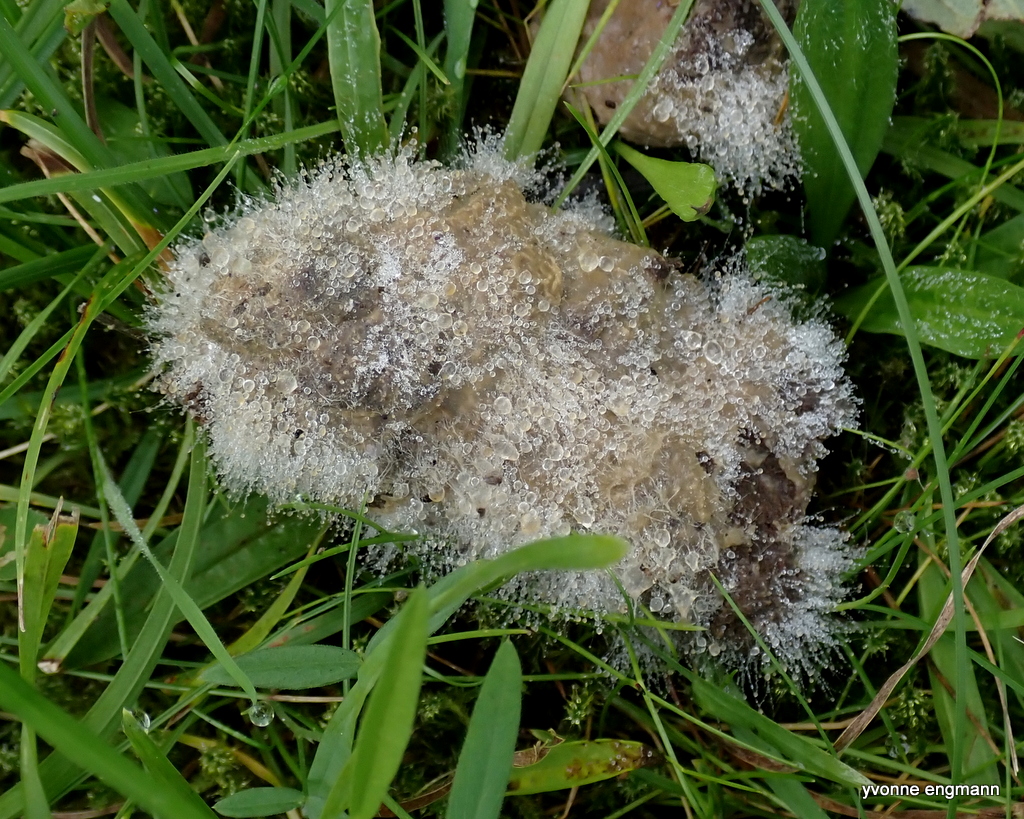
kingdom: Fungi
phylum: Mucoromycota
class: Mucoromycetes
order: Mucorales
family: Mucoraceae
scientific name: Mucoraceae
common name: mugfamilien
